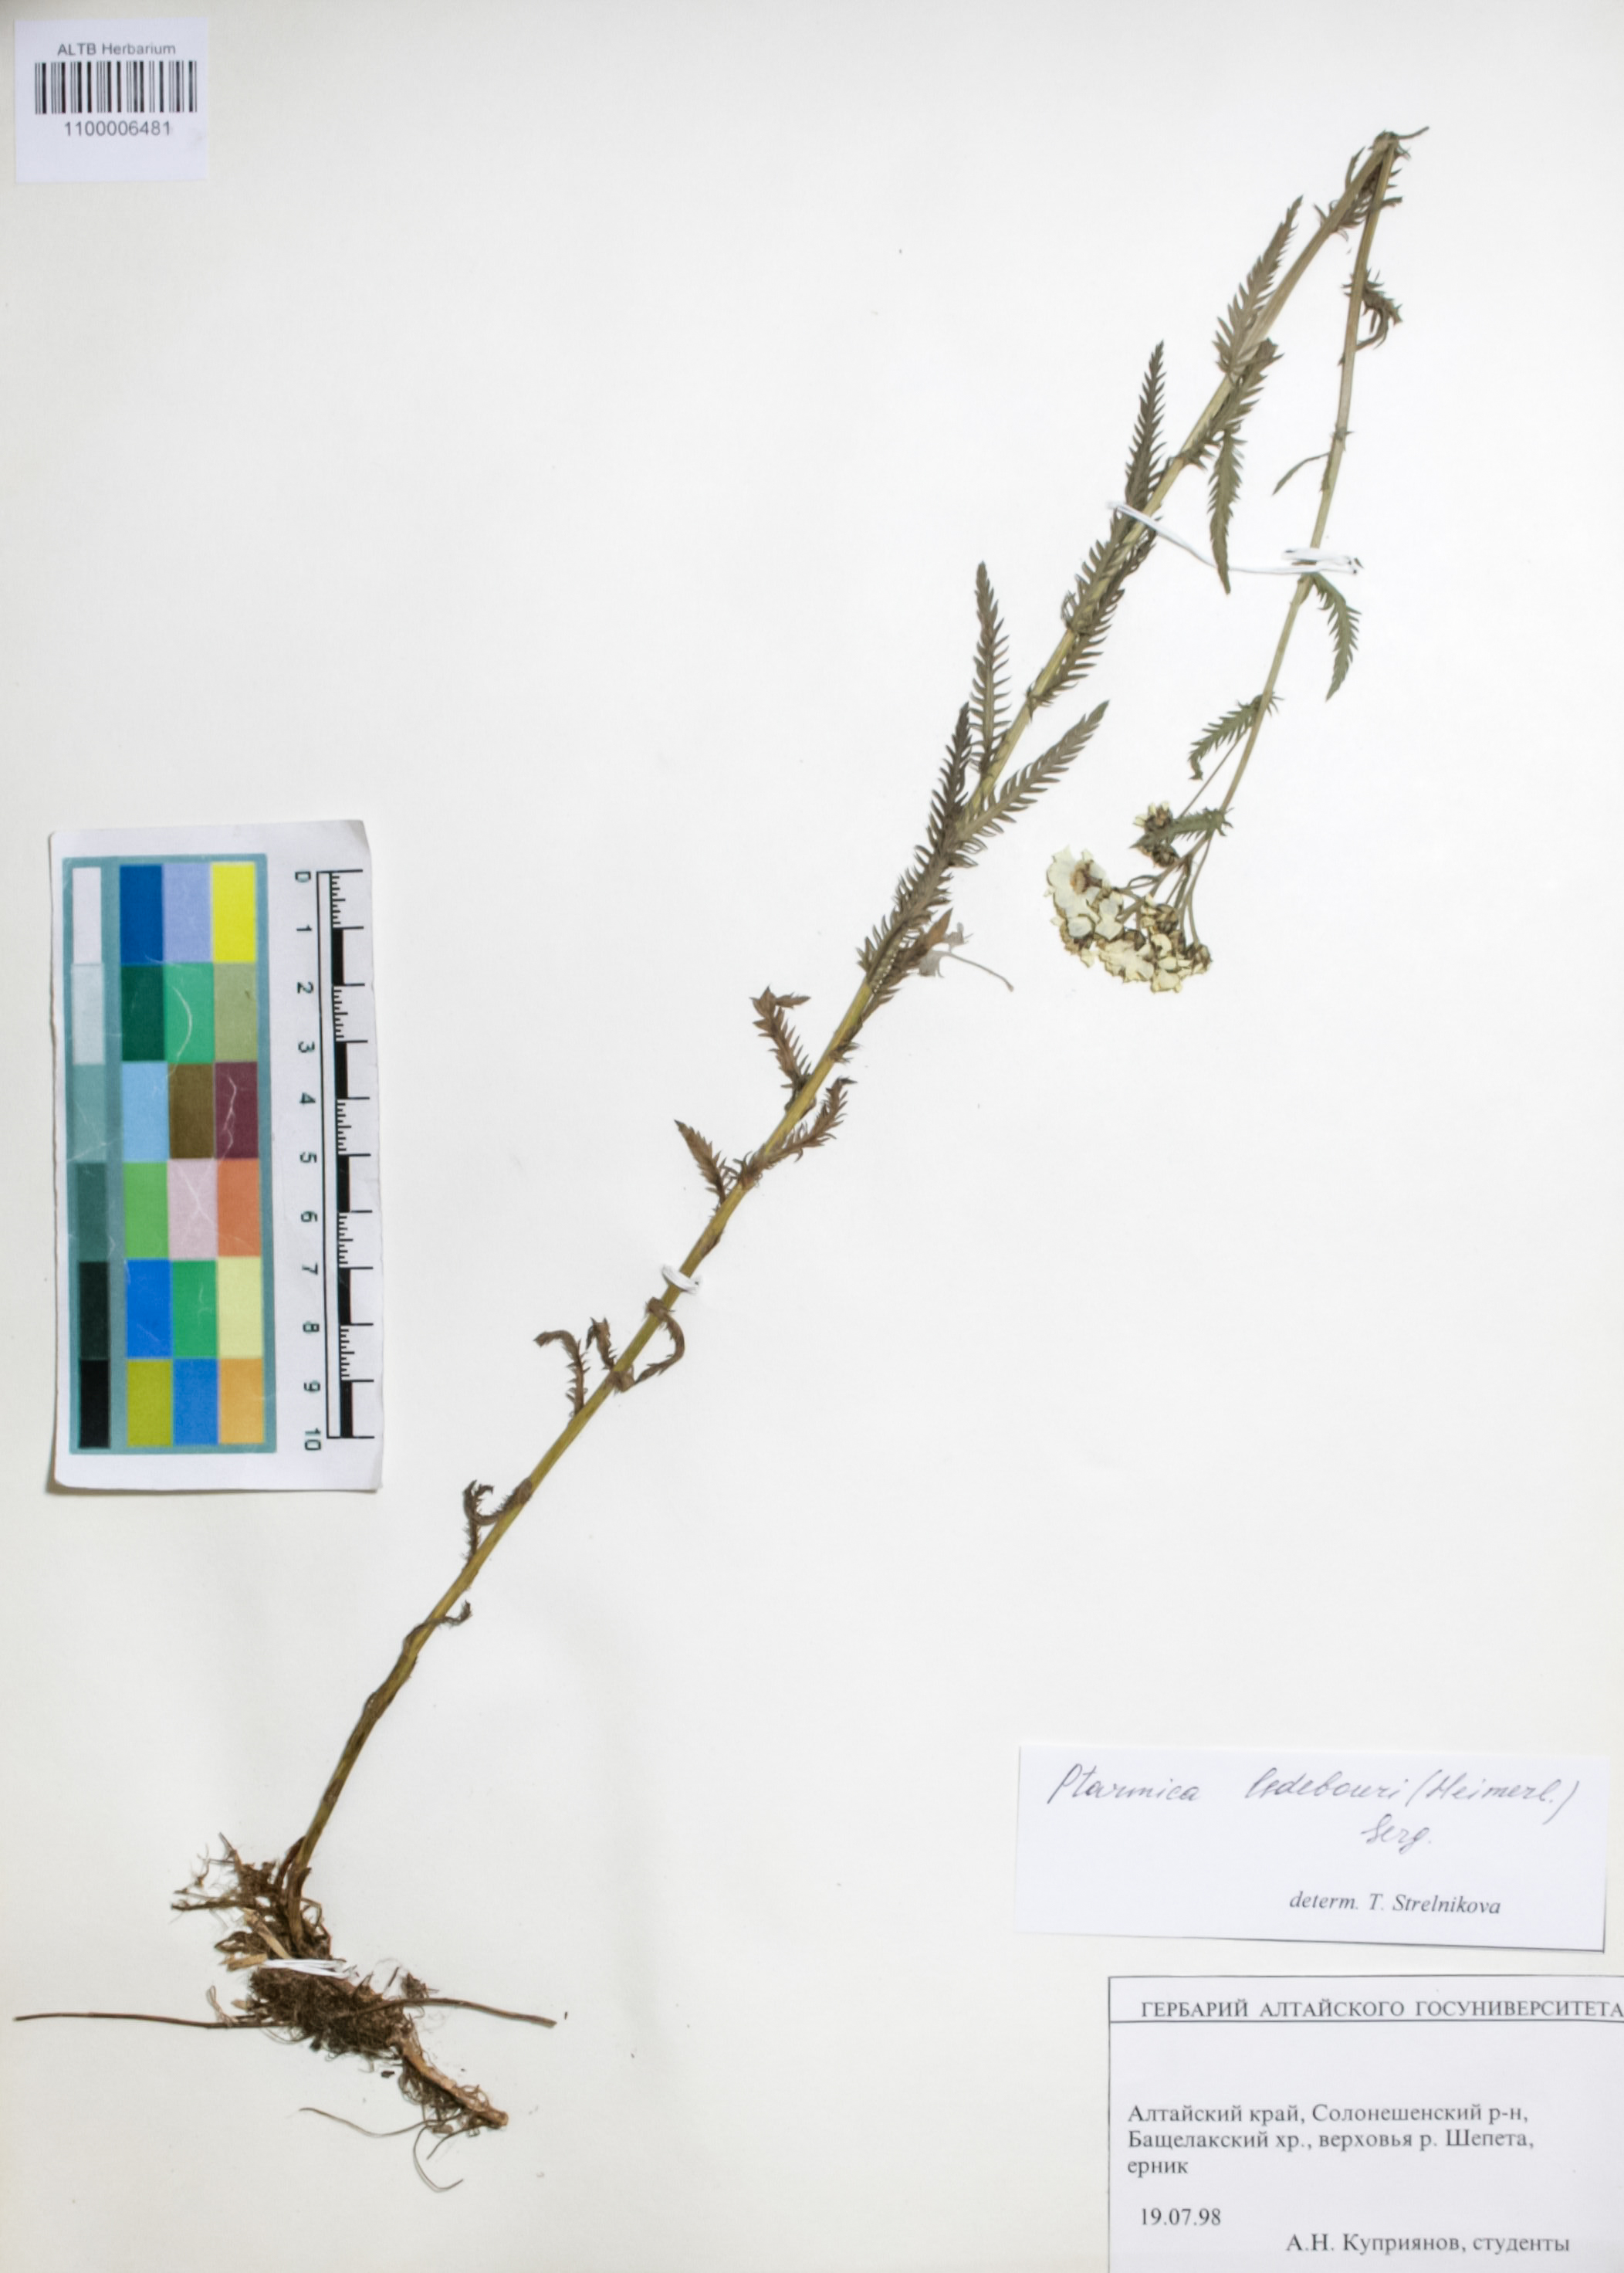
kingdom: Plantae
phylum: Tracheophyta
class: Magnoliopsida
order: Asterales
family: Asteraceae
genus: Achillea
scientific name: Achillea ledebourii
